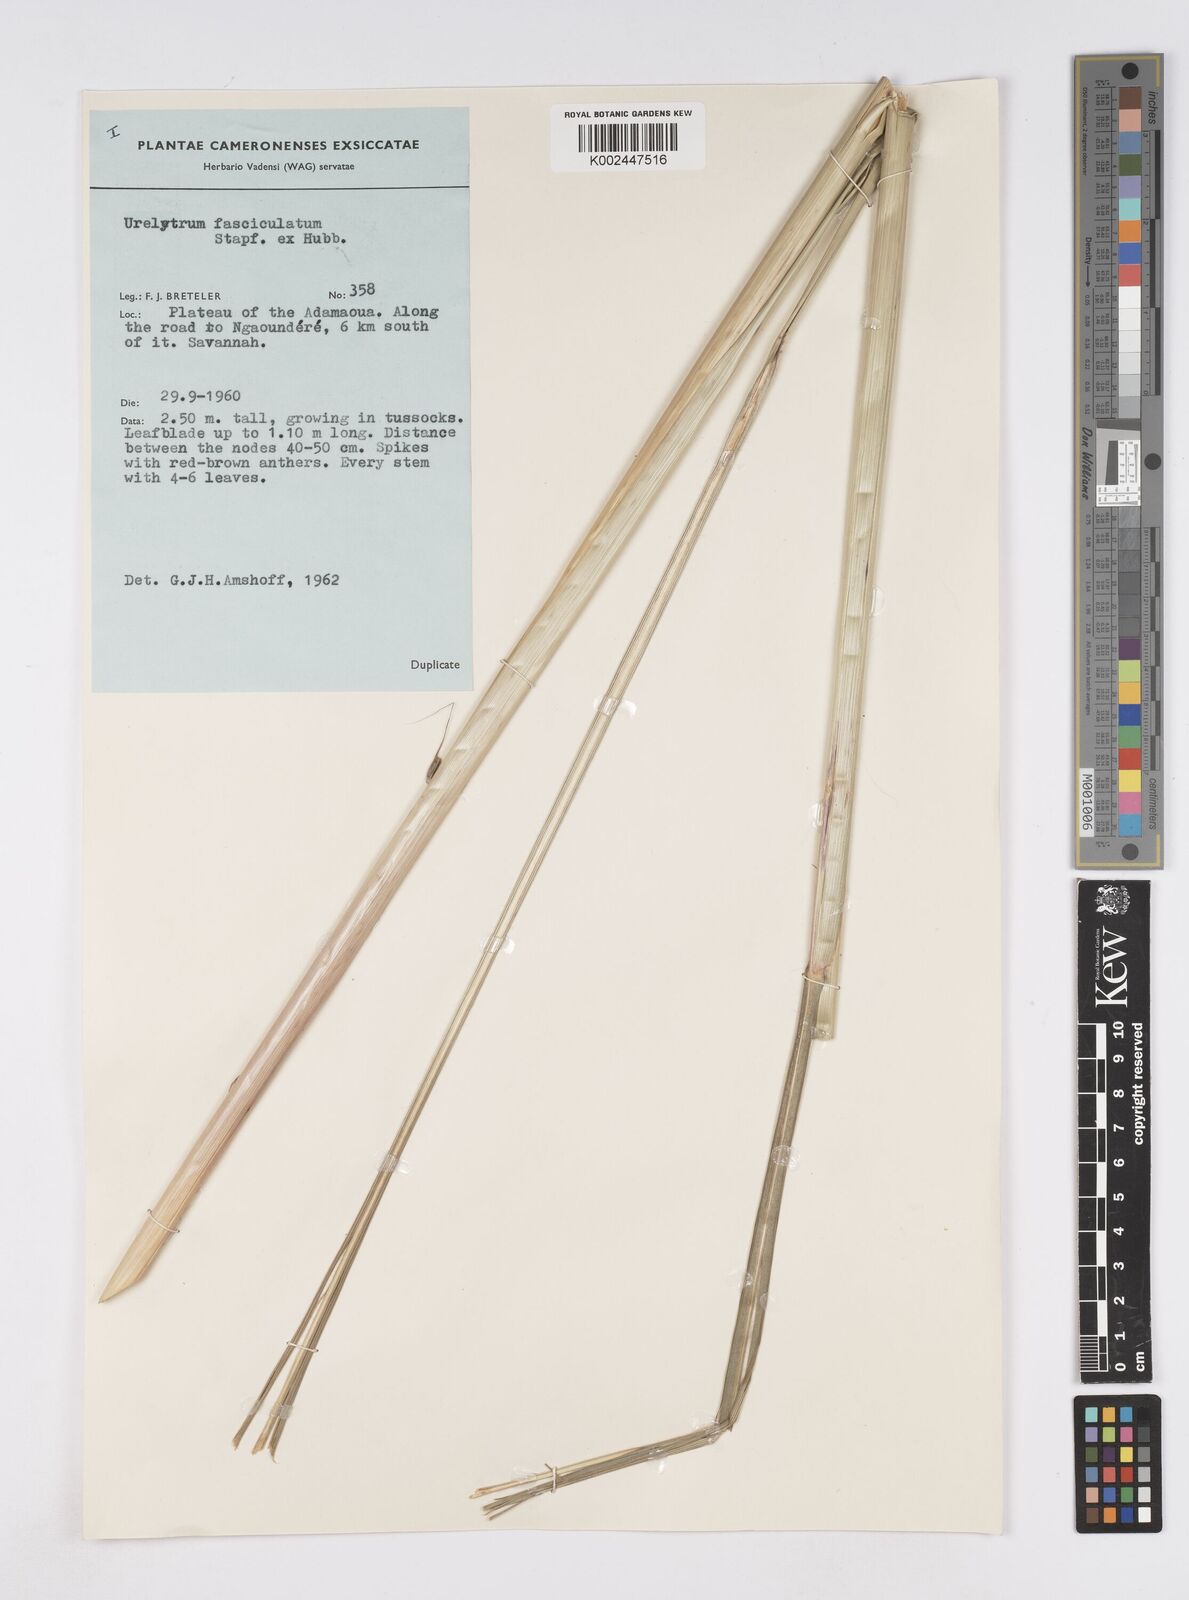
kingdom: Plantae
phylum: Tracheophyta
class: Liliopsida
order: Poales
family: Poaceae
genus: Urelytrum
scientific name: Urelytrum digitatum
